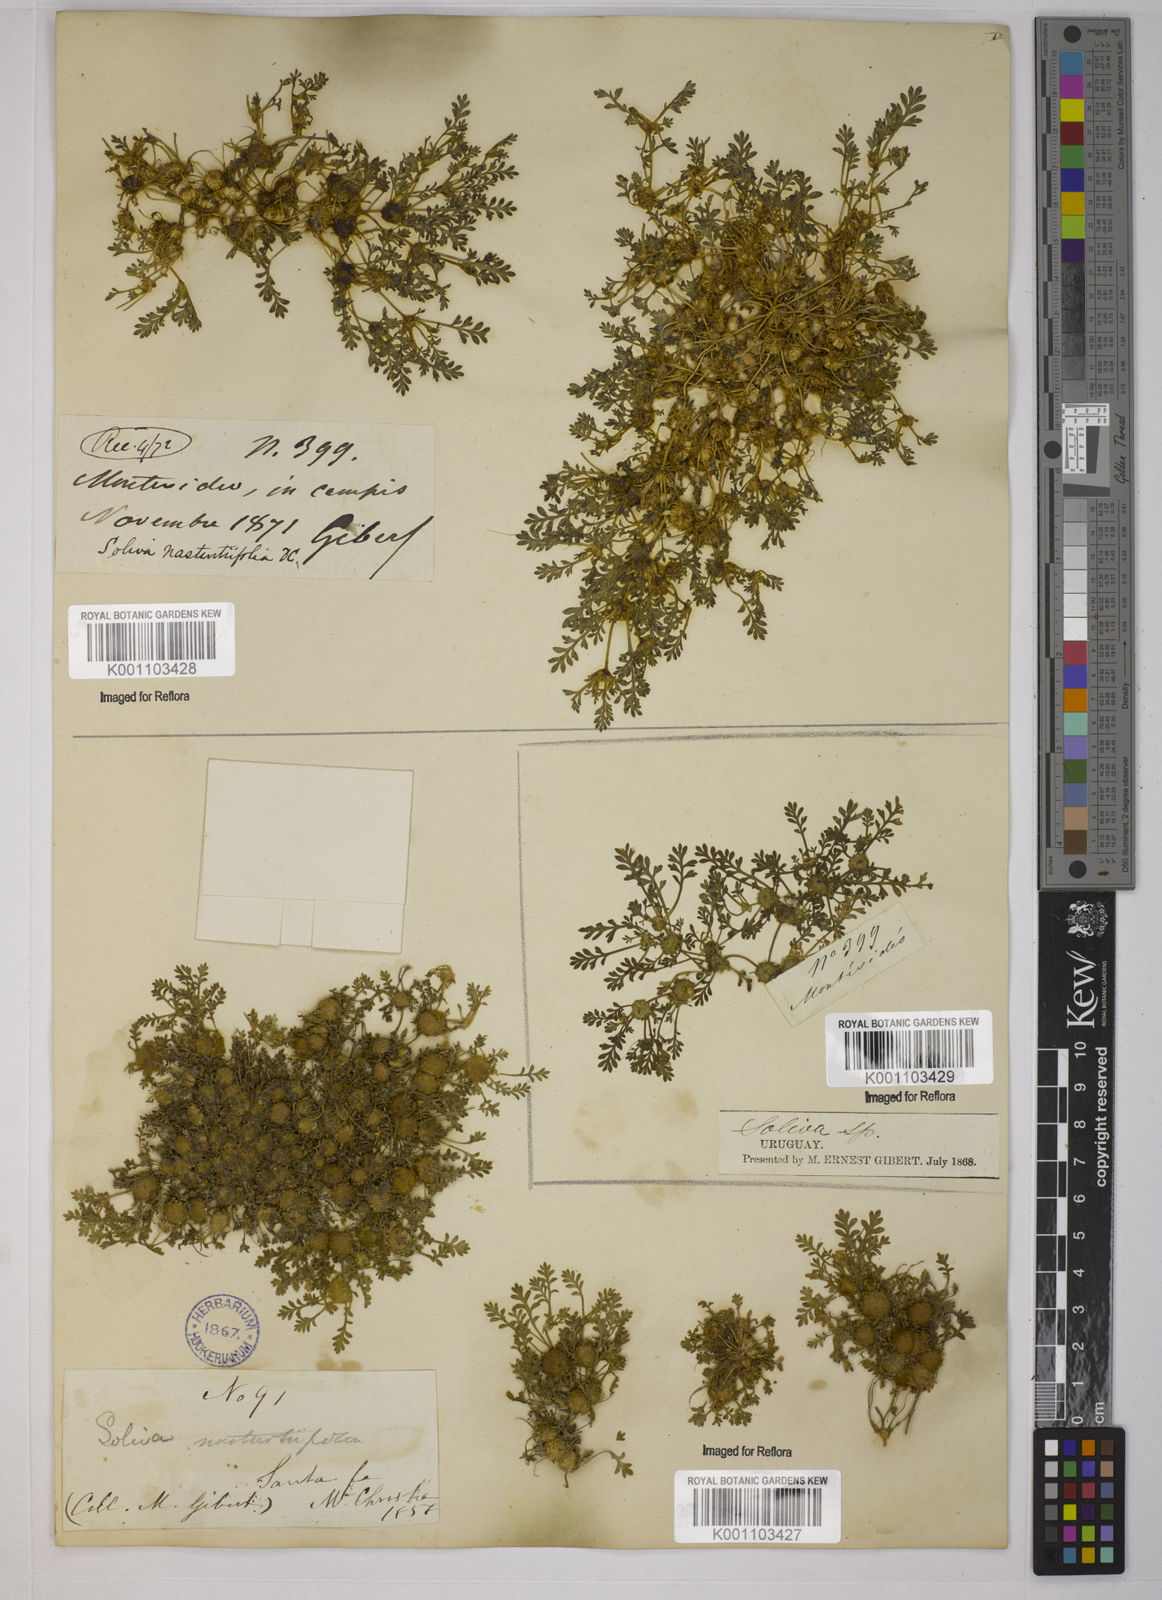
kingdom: Plantae
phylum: Tracheophyta
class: Magnoliopsida
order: Asterales
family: Asteraceae
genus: Soliva
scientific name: Soliva
